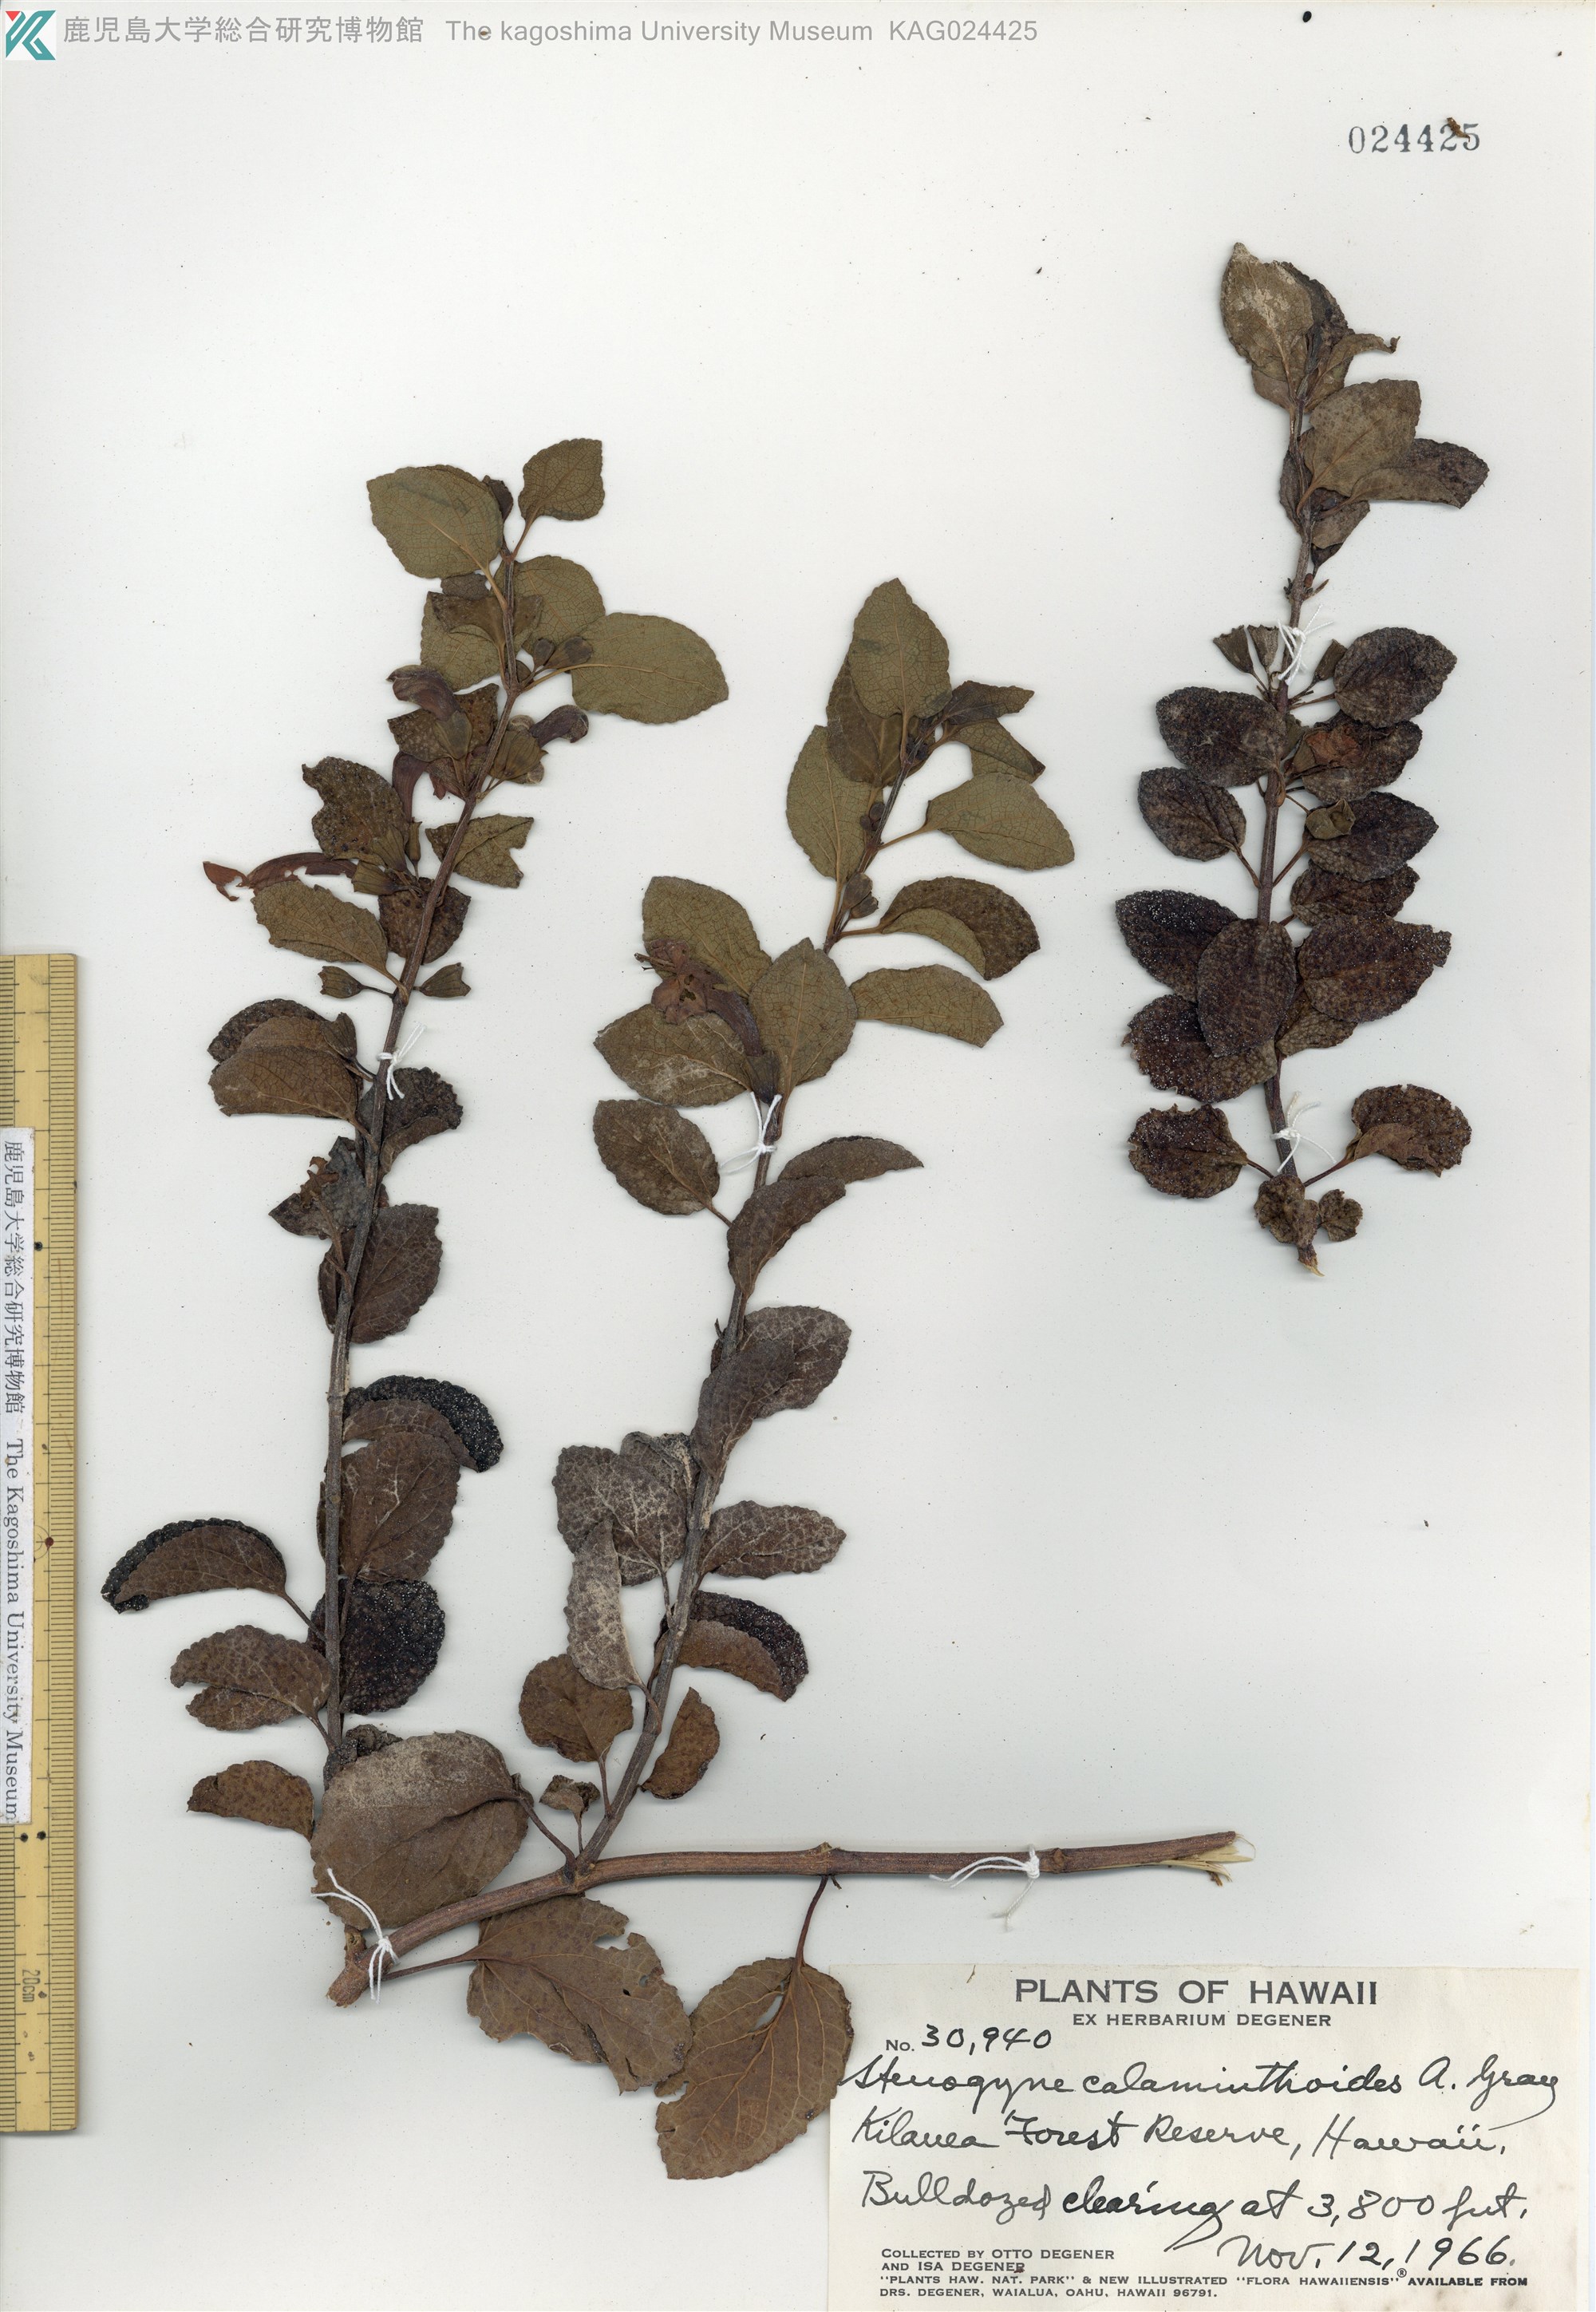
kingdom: Plantae
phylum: Tracheophyta
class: Magnoliopsida
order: Lamiales
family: Lamiaceae
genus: Stenogyne
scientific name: Stenogyne calaminthoides
